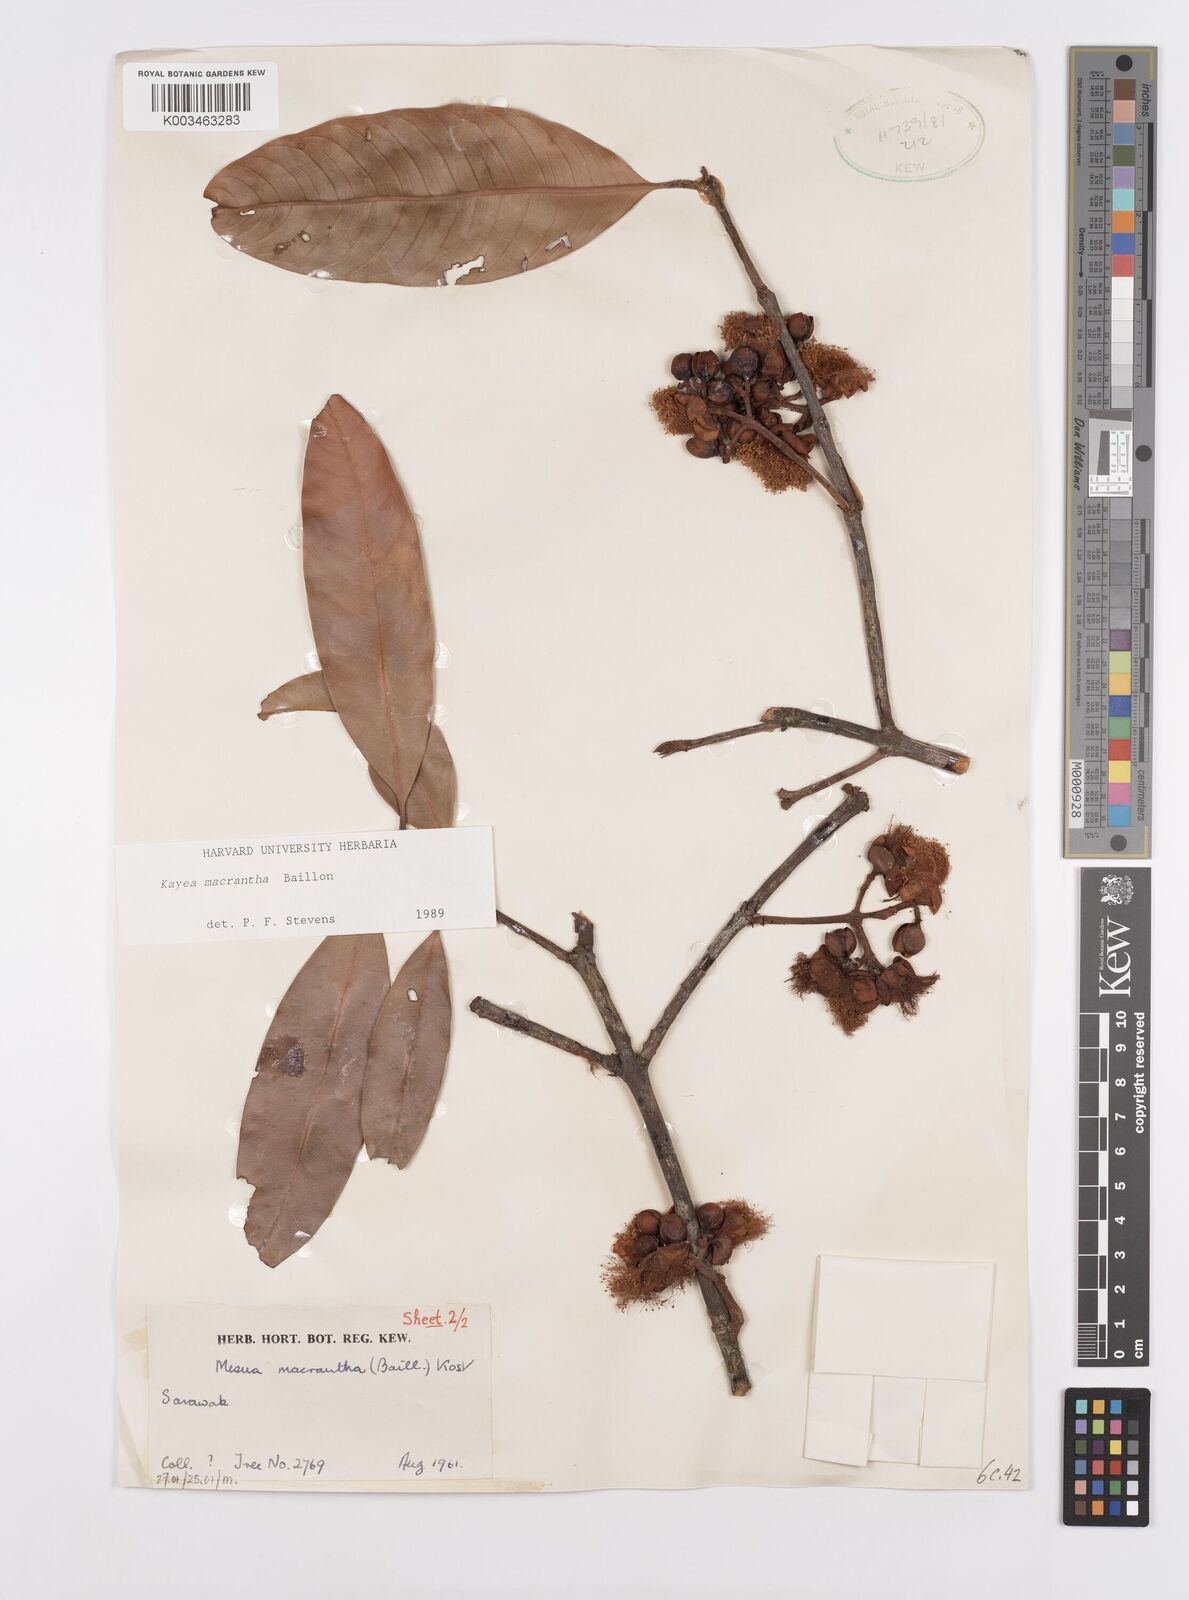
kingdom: Plantae
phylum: Tracheophyta
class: Magnoliopsida
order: Malpighiales
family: Calophyllaceae
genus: Kayea
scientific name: Kayea macrantha
